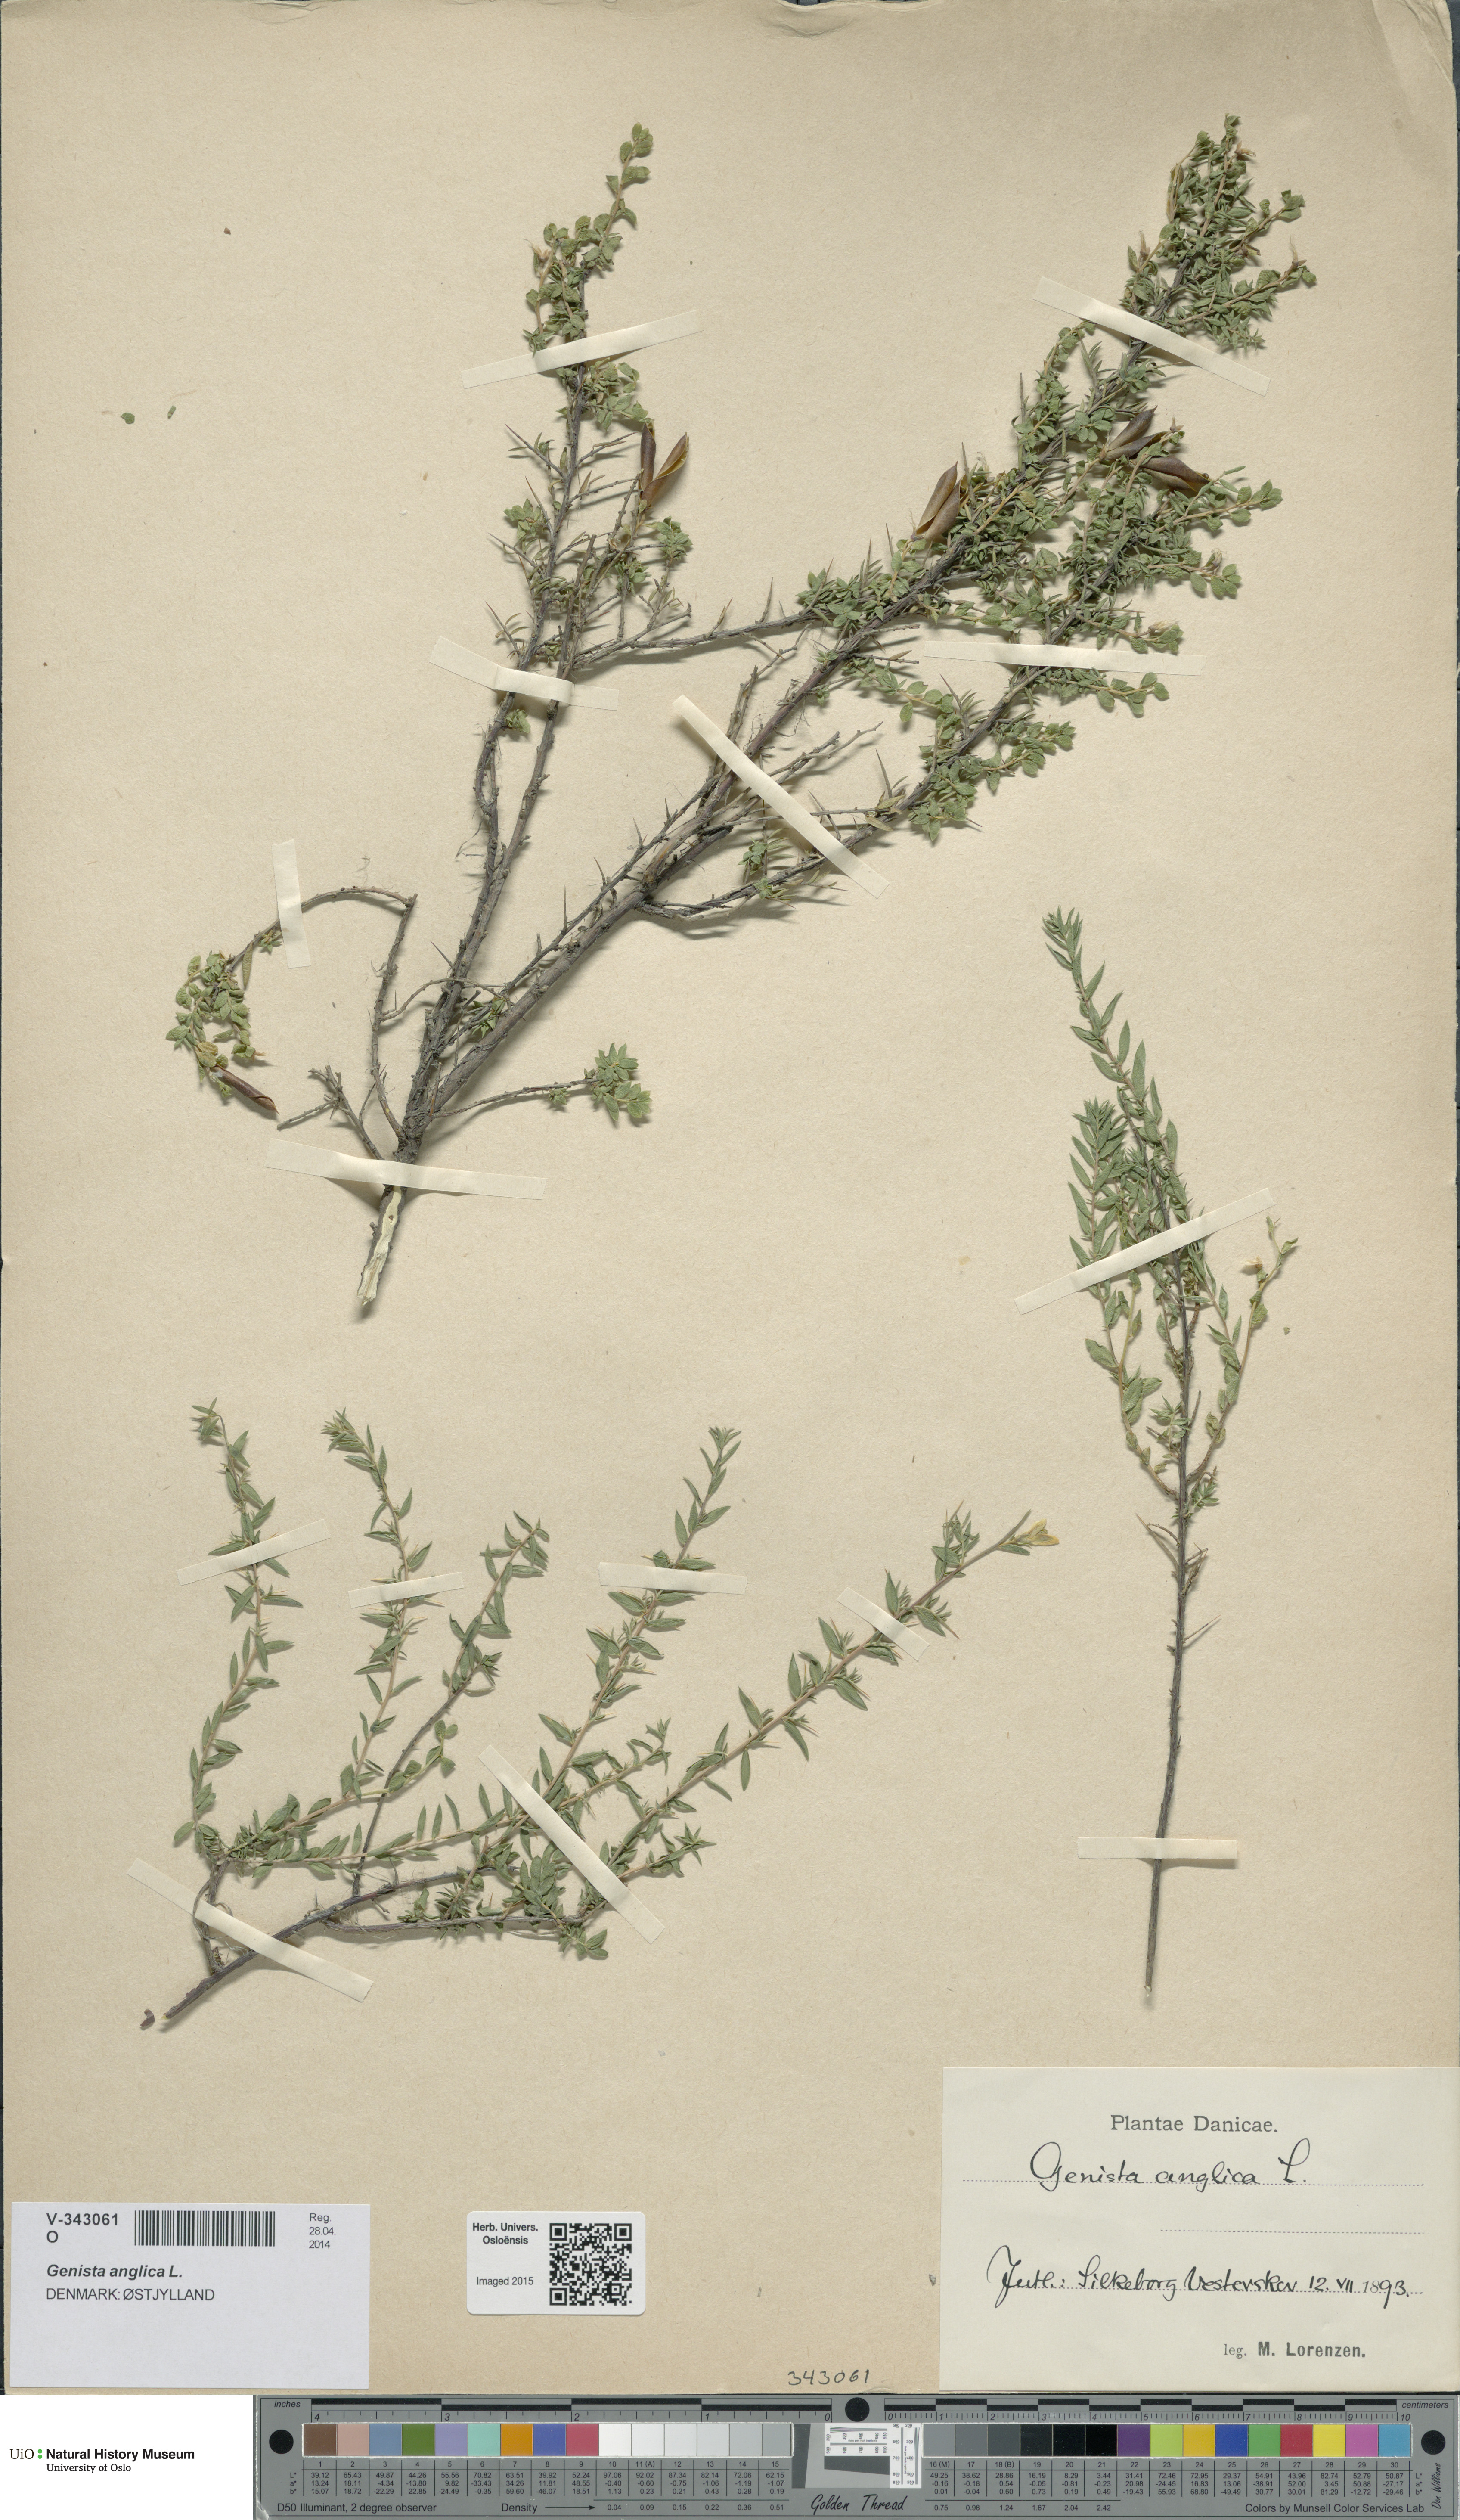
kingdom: Plantae
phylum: Tracheophyta
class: Magnoliopsida
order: Fabales
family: Fabaceae
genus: Genista
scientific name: Genista anglica
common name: Petty whin
